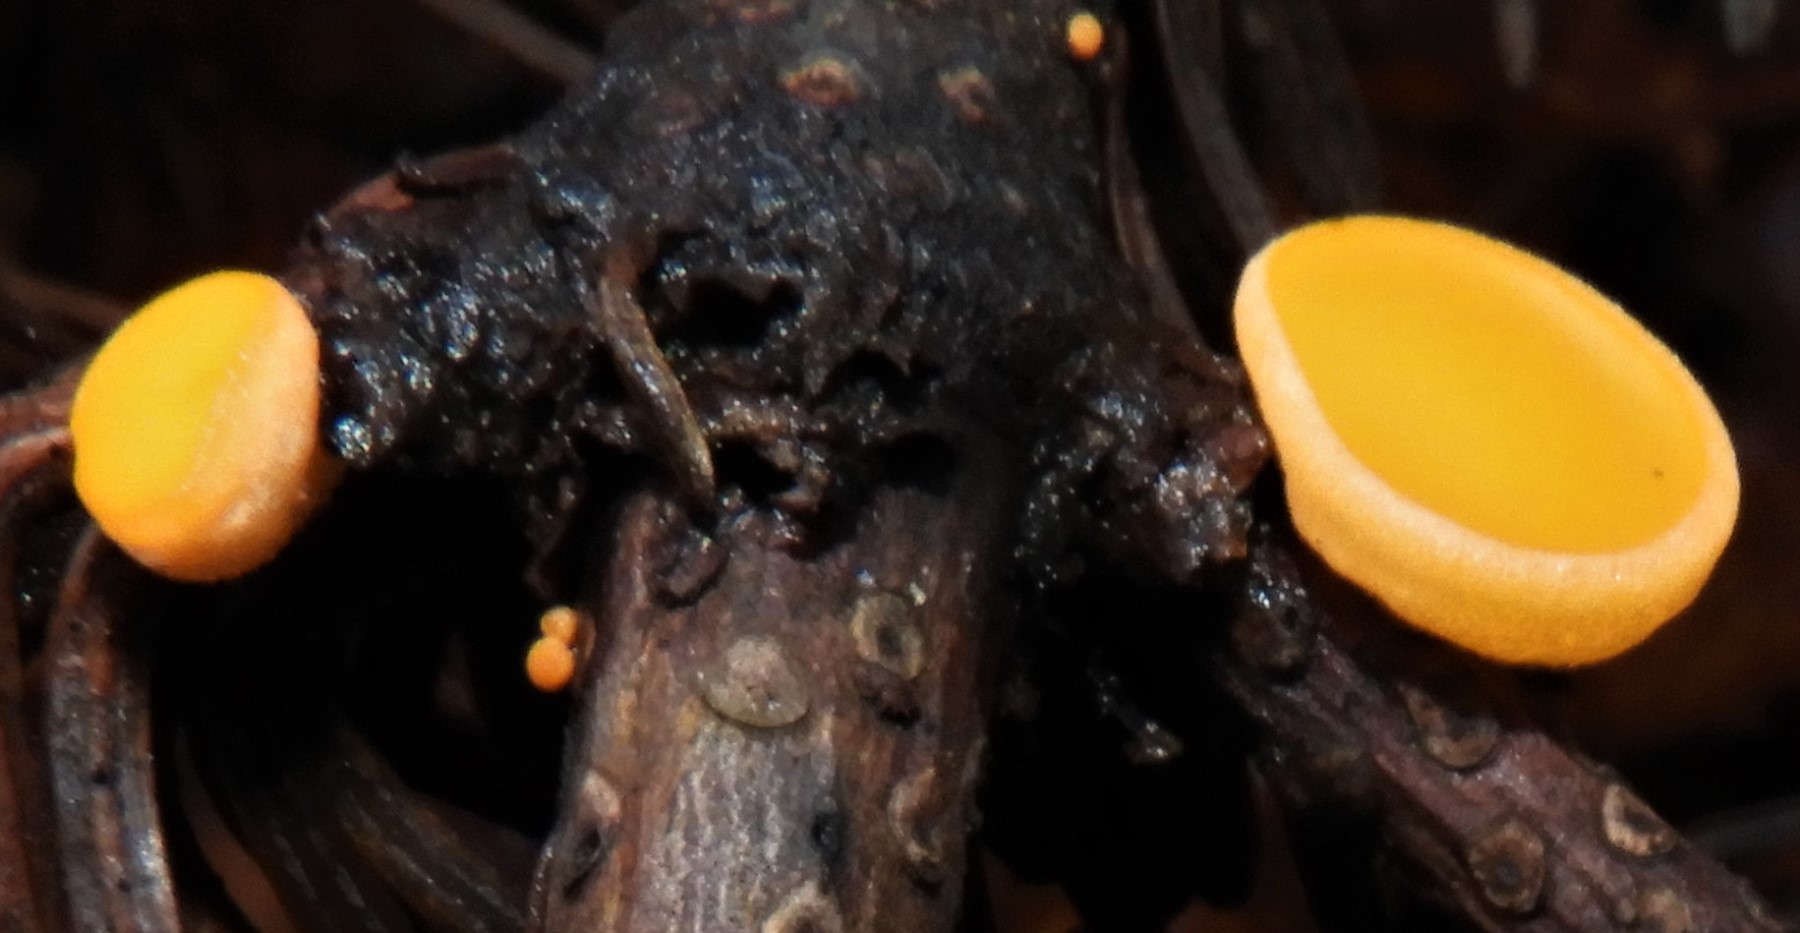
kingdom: Fungi
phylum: Ascomycota
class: Pezizomycetes
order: Pezizales
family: Sarcoscyphaceae
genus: Pithya
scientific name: Pithya vulgaris
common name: stor dukatbæger
